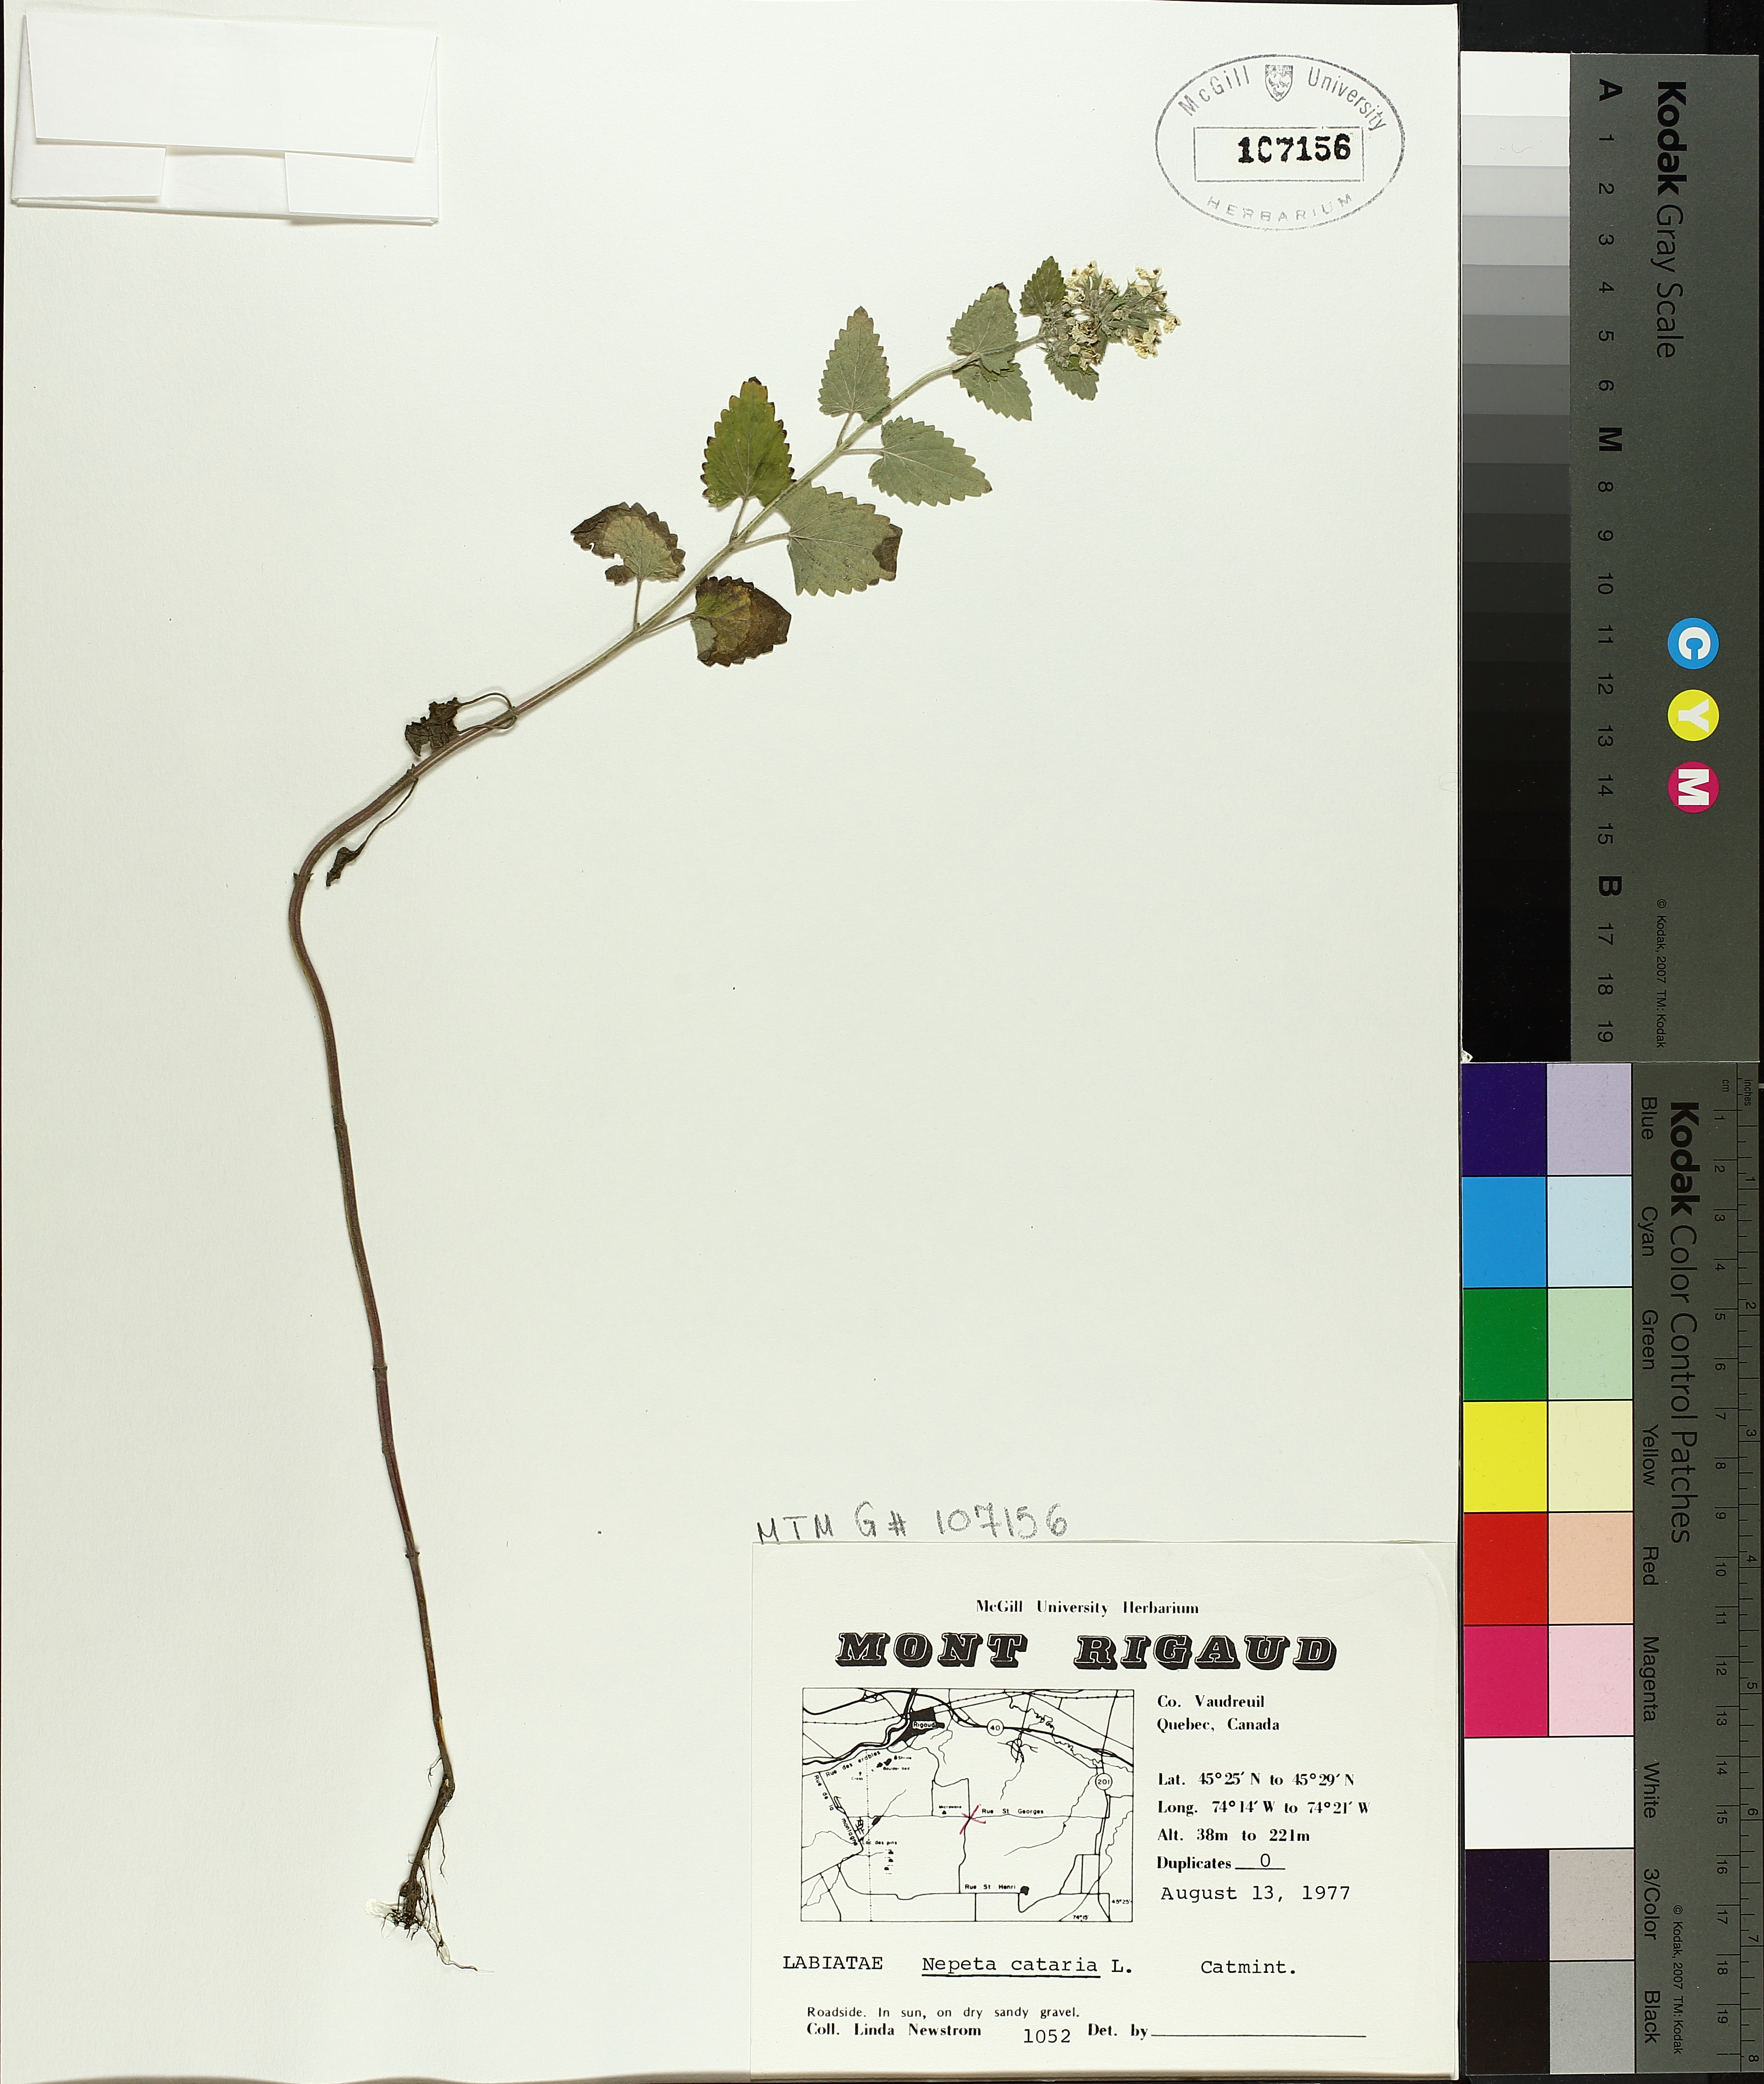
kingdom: Plantae
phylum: Tracheophyta
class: Magnoliopsida
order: Lamiales
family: Lamiaceae
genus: Nepeta
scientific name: Nepeta cataria
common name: Catnip
